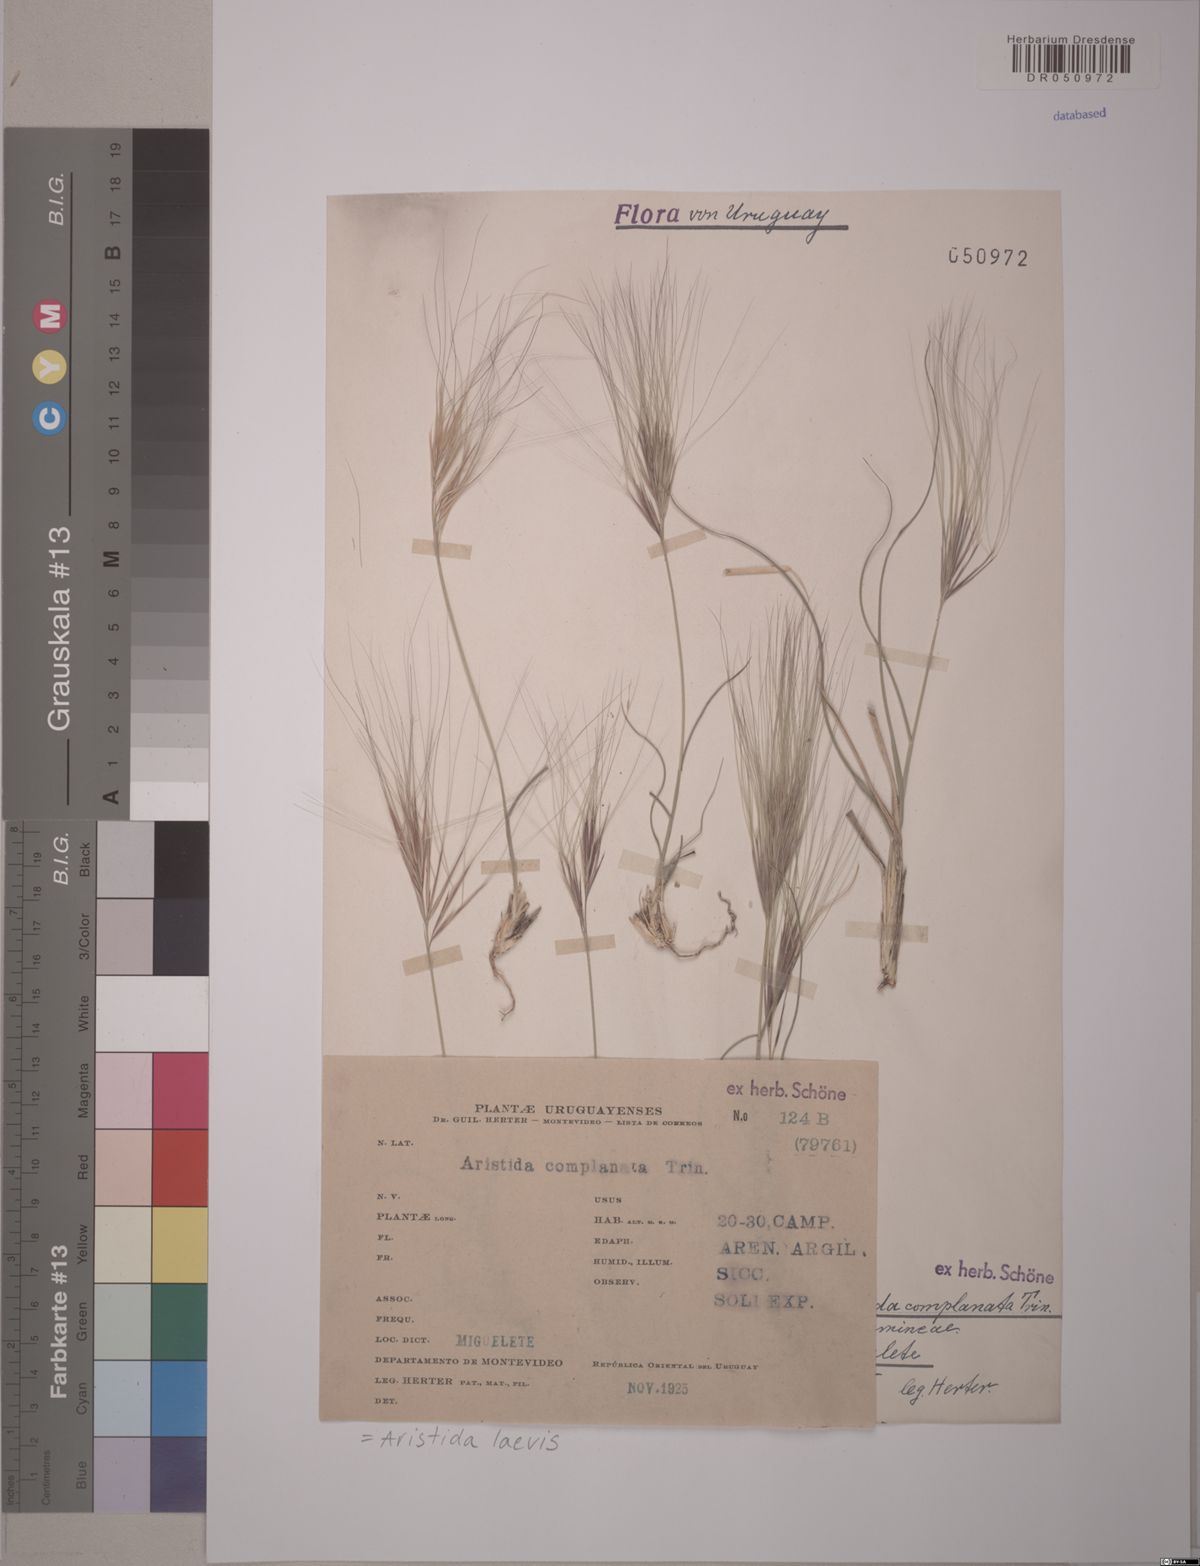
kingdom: Plantae
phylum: Tracheophyta
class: Liliopsida
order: Poales
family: Poaceae
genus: Aristida
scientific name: Aristida laevis
